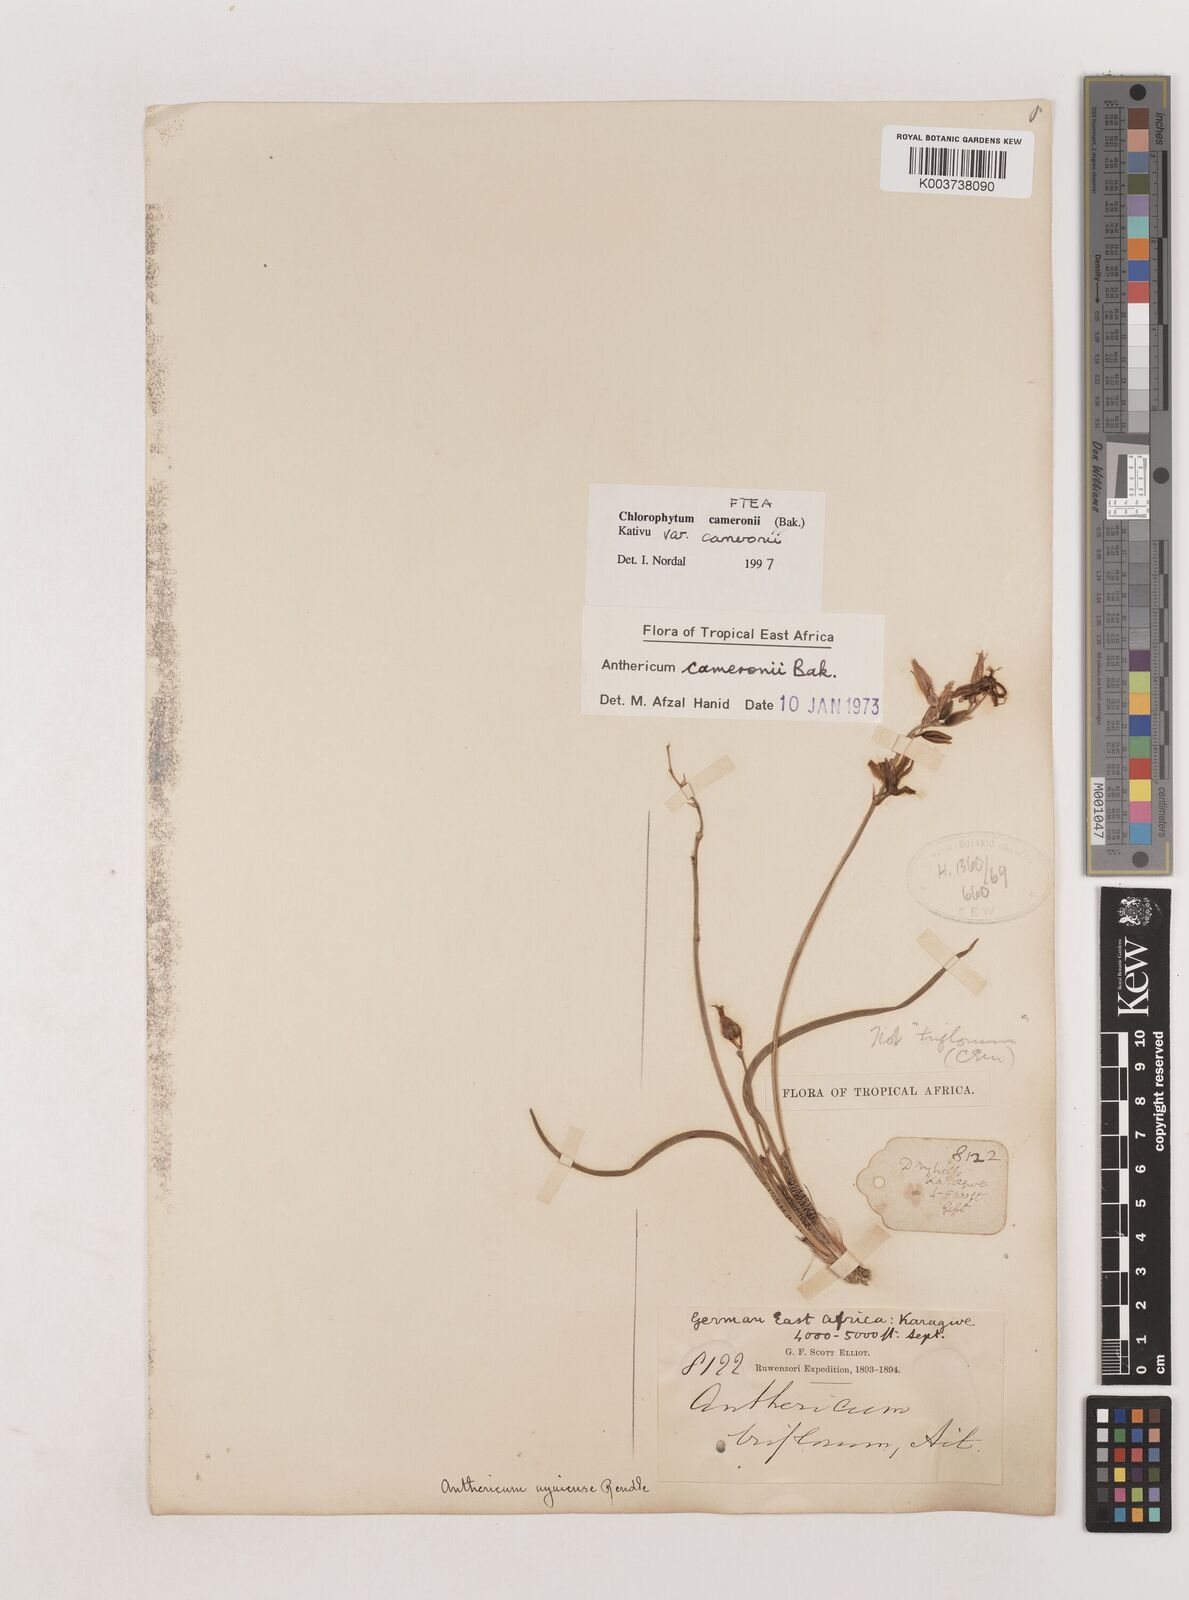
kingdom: Plantae
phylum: Tracheophyta
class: Liliopsida
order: Asparagales
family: Asparagaceae
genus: Chlorophytum
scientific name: Chlorophytum cameronii
